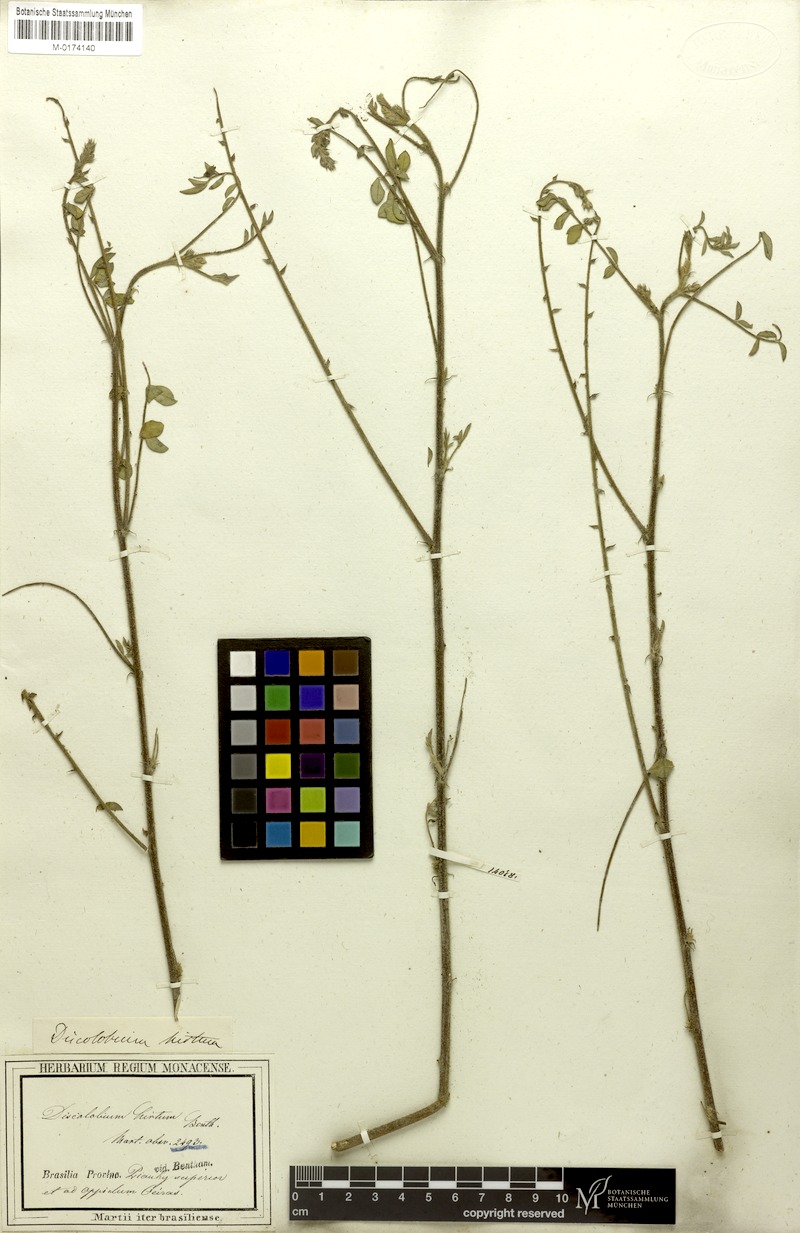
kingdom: Plantae
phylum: Tracheophyta
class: Magnoliopsida
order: Fabales
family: Fabaceae
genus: Discolobium
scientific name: Discolobium hirtum
